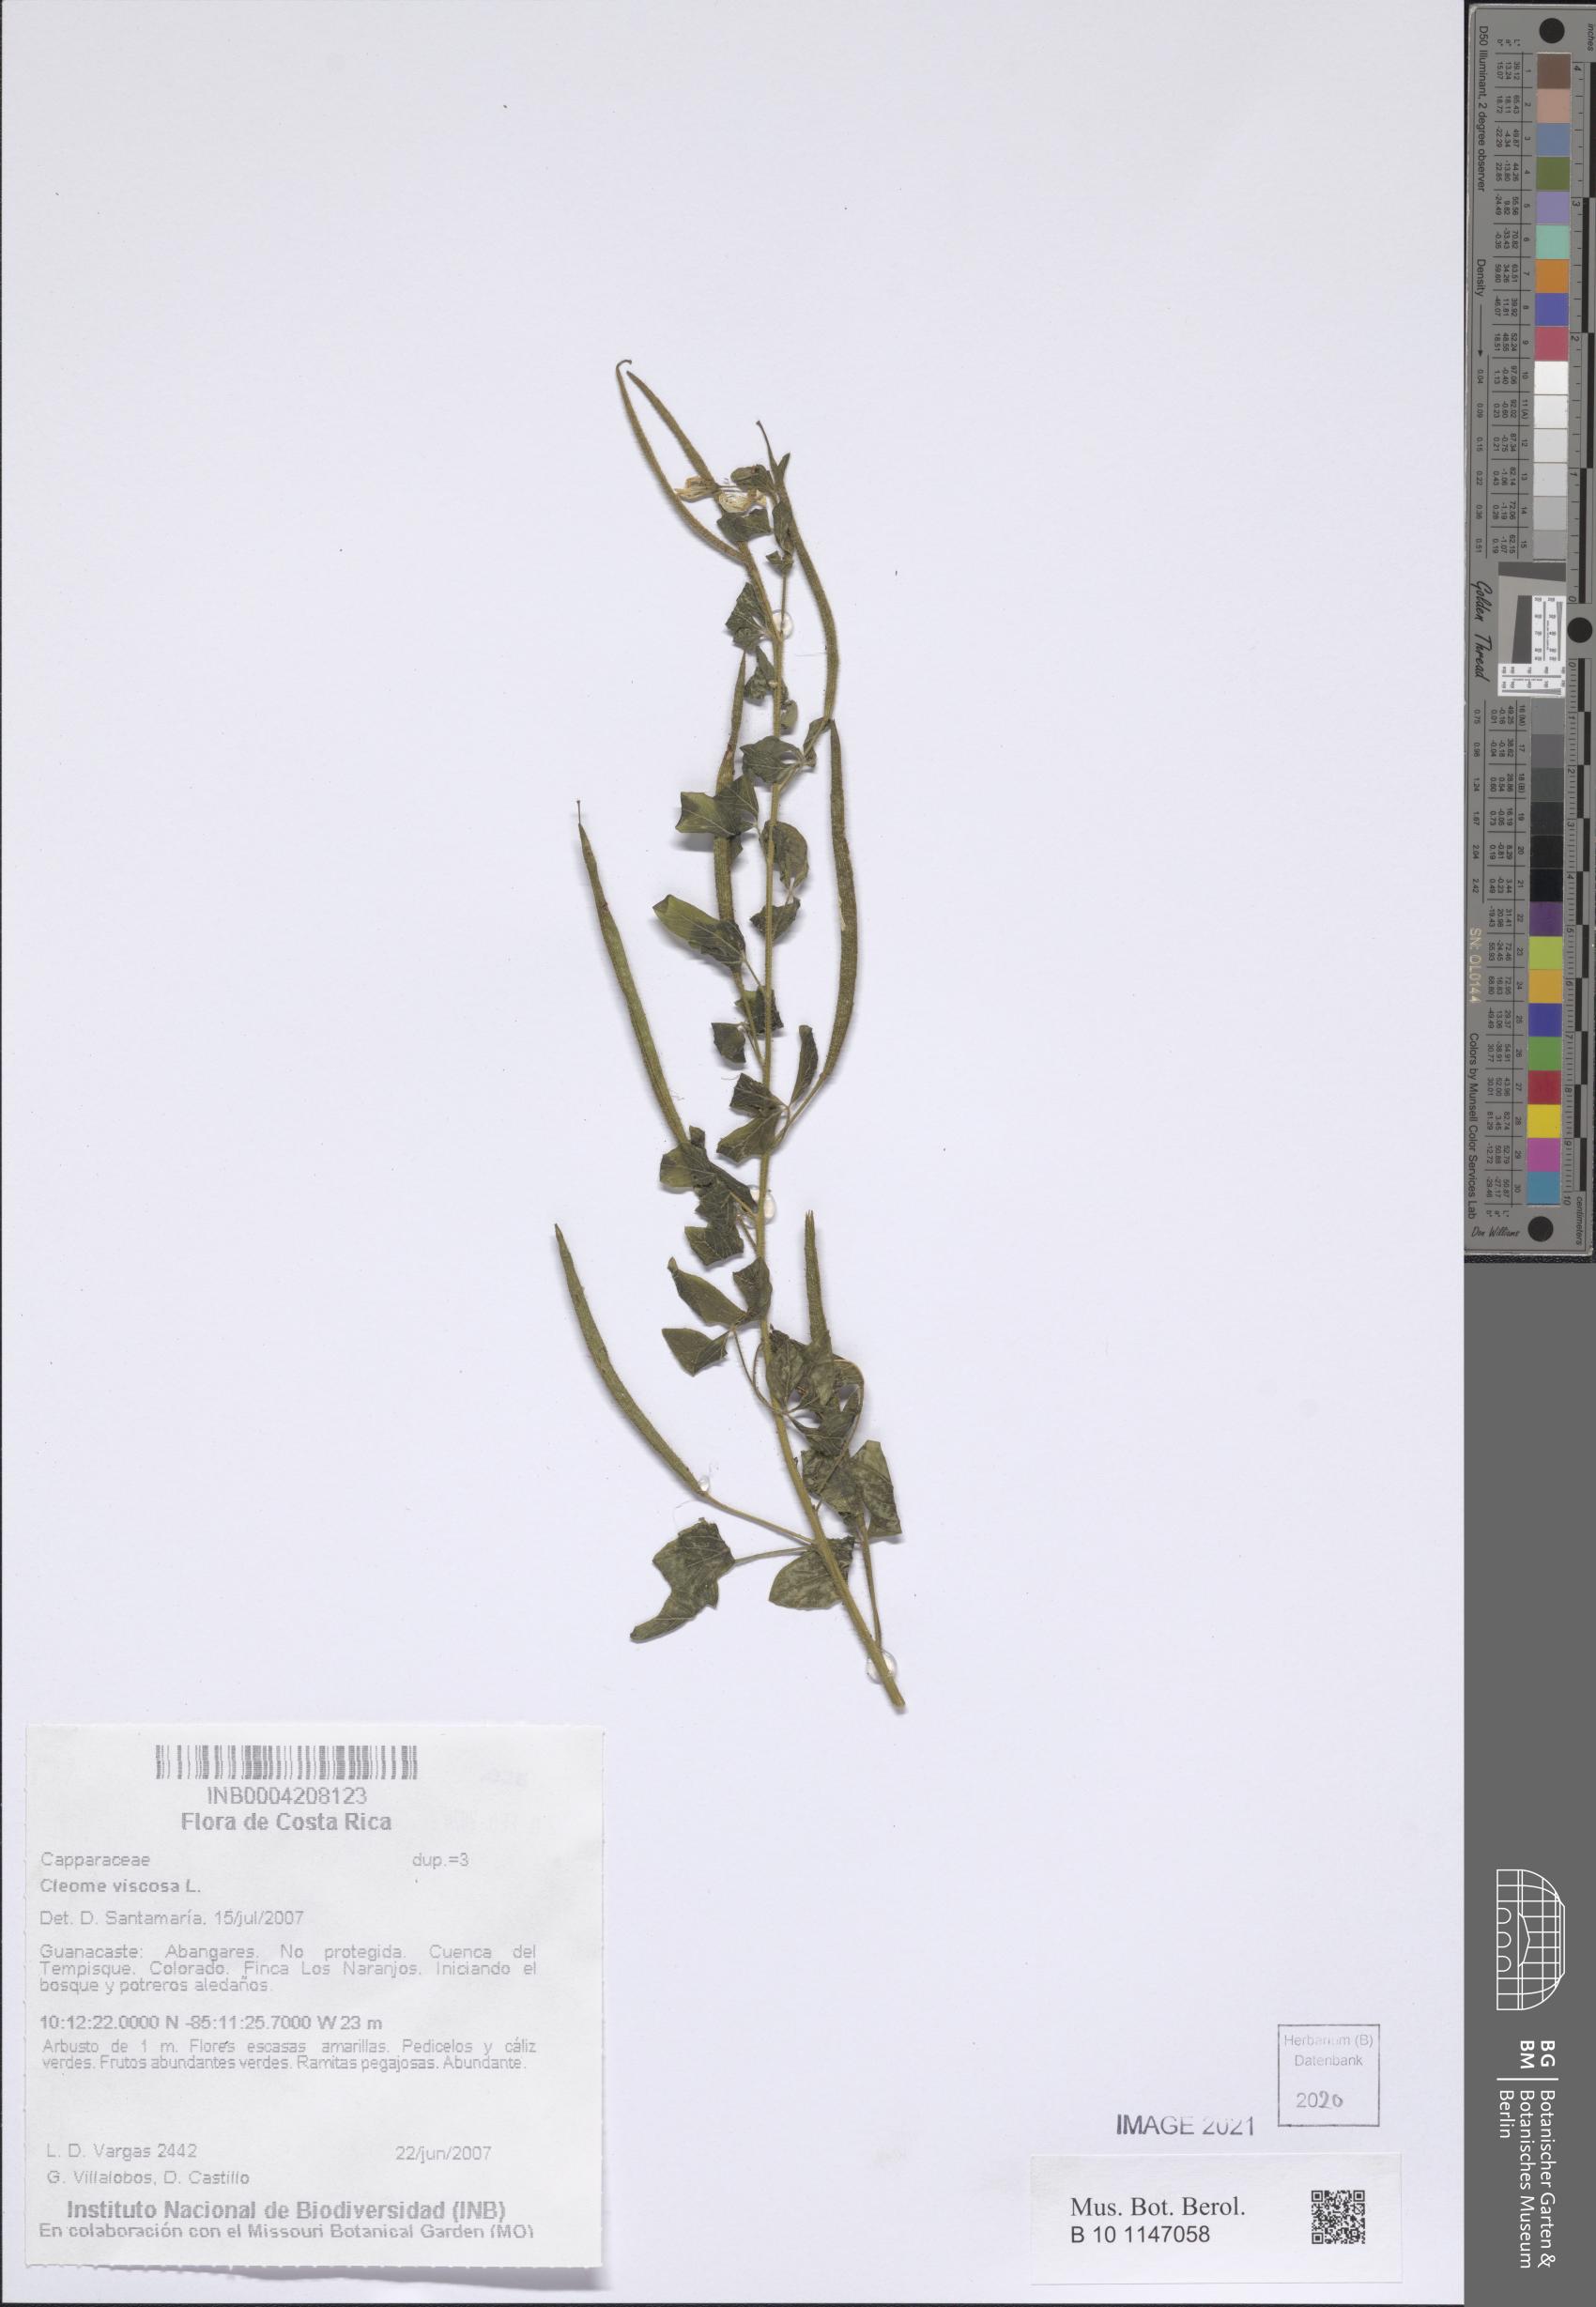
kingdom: Plantae
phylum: Tracheophyta
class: Magnoliopsida
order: Brassicales
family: Cleomaceae
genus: Arivela
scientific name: Arivela viscosa
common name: Asian spiderflower
